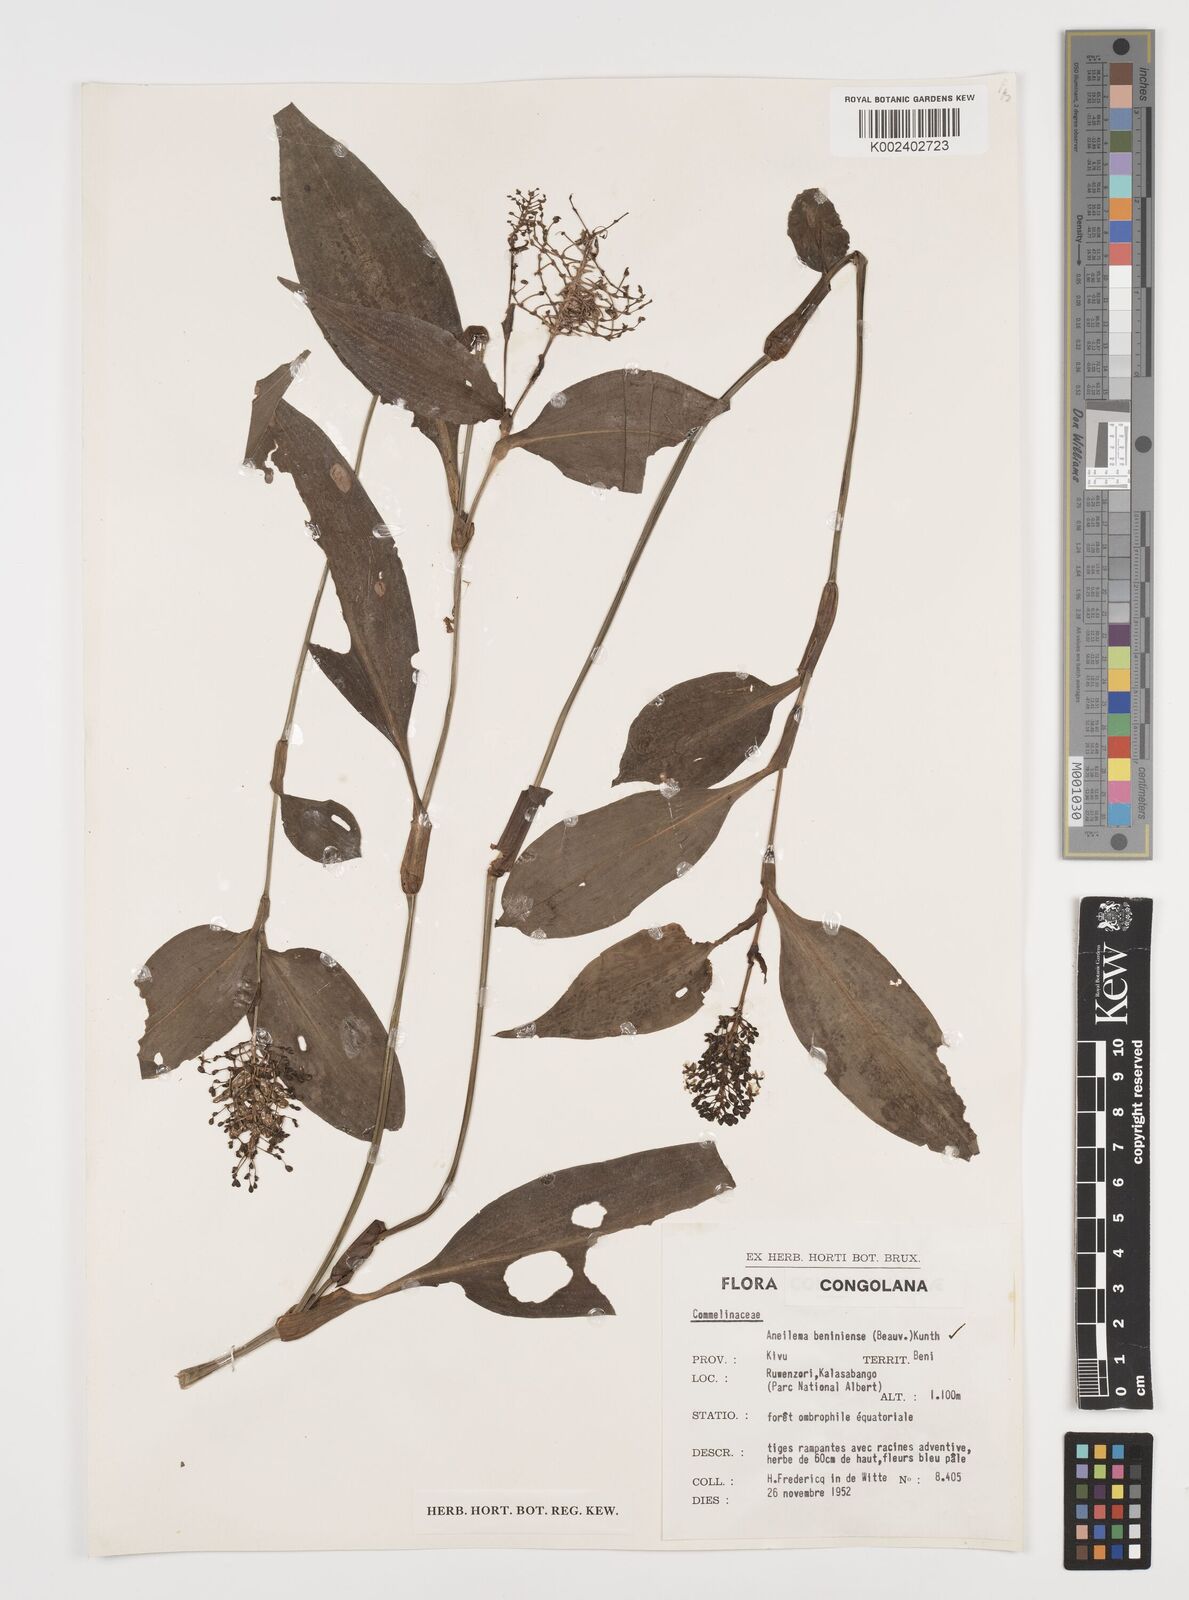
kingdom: Plantae
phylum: Tracheophyta
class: Liliopsida
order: Commelinales
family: Commelinaceae
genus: Aneilema
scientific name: Aneilema beniniense
